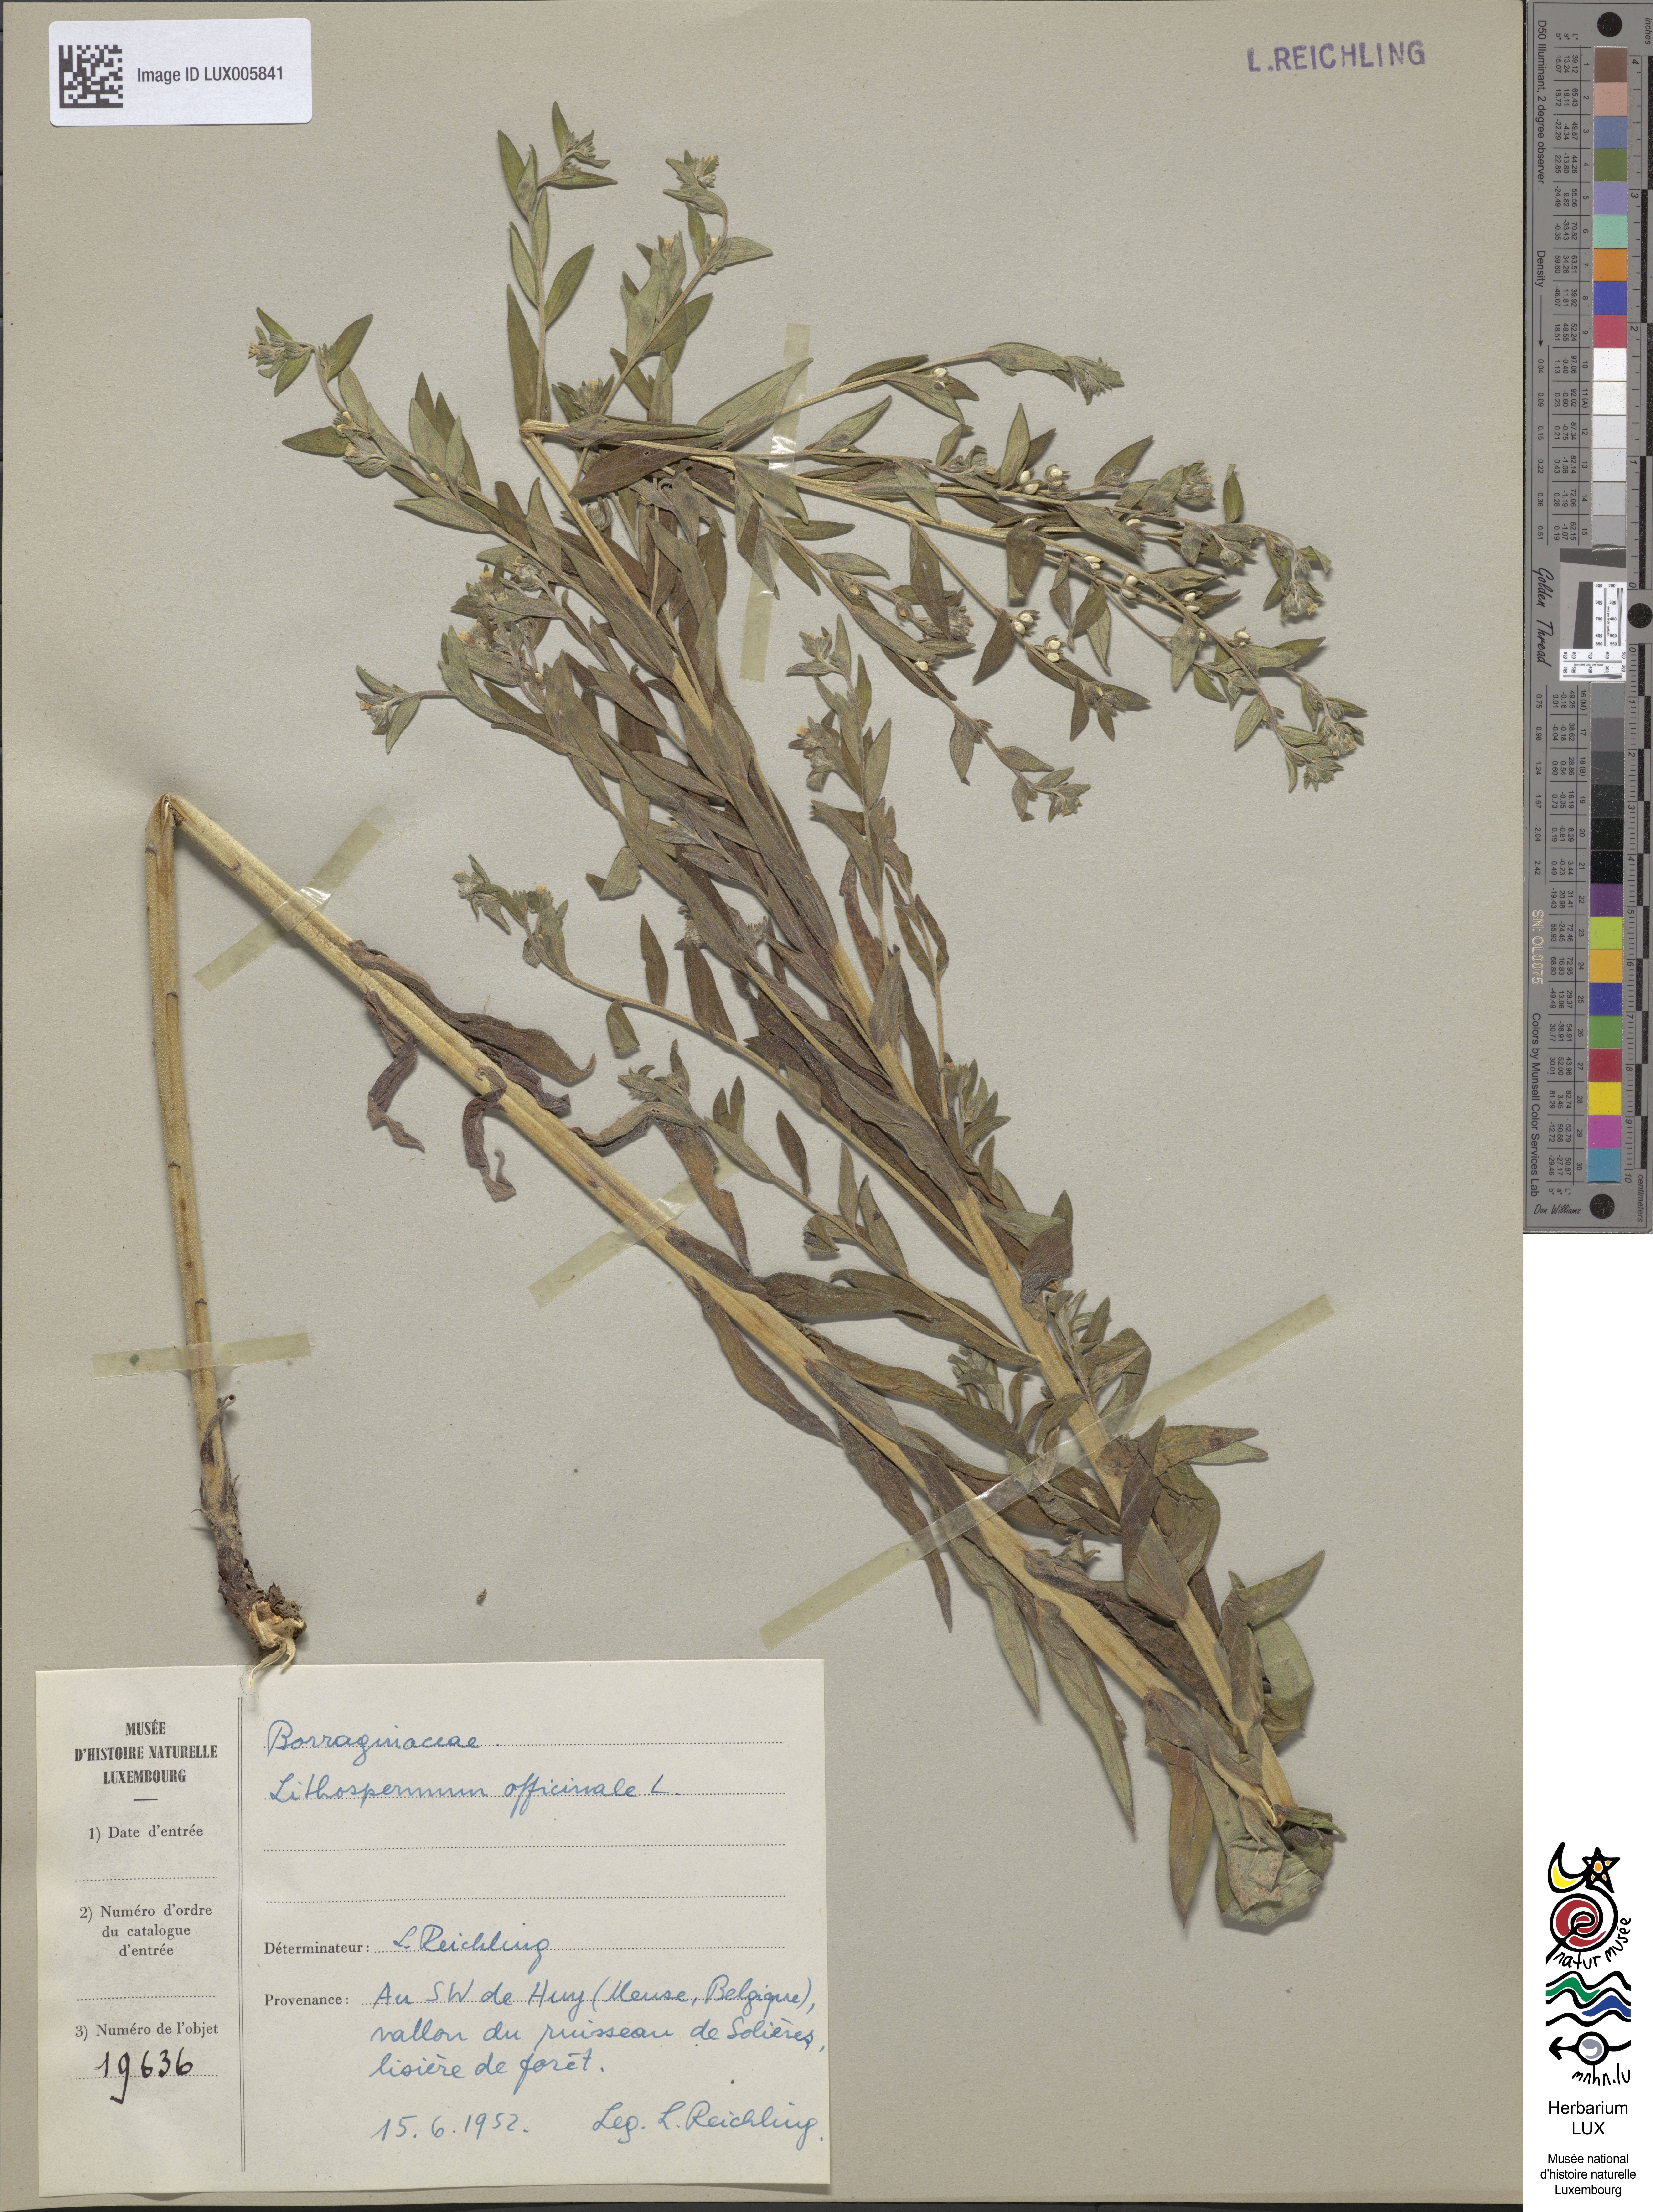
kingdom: Plantae
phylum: Tracheophyta
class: Magnoliopsida
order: Boraginales
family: Boraginaceae
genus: Lithospermum
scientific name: Lithospermum officinale
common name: Common gromwell
